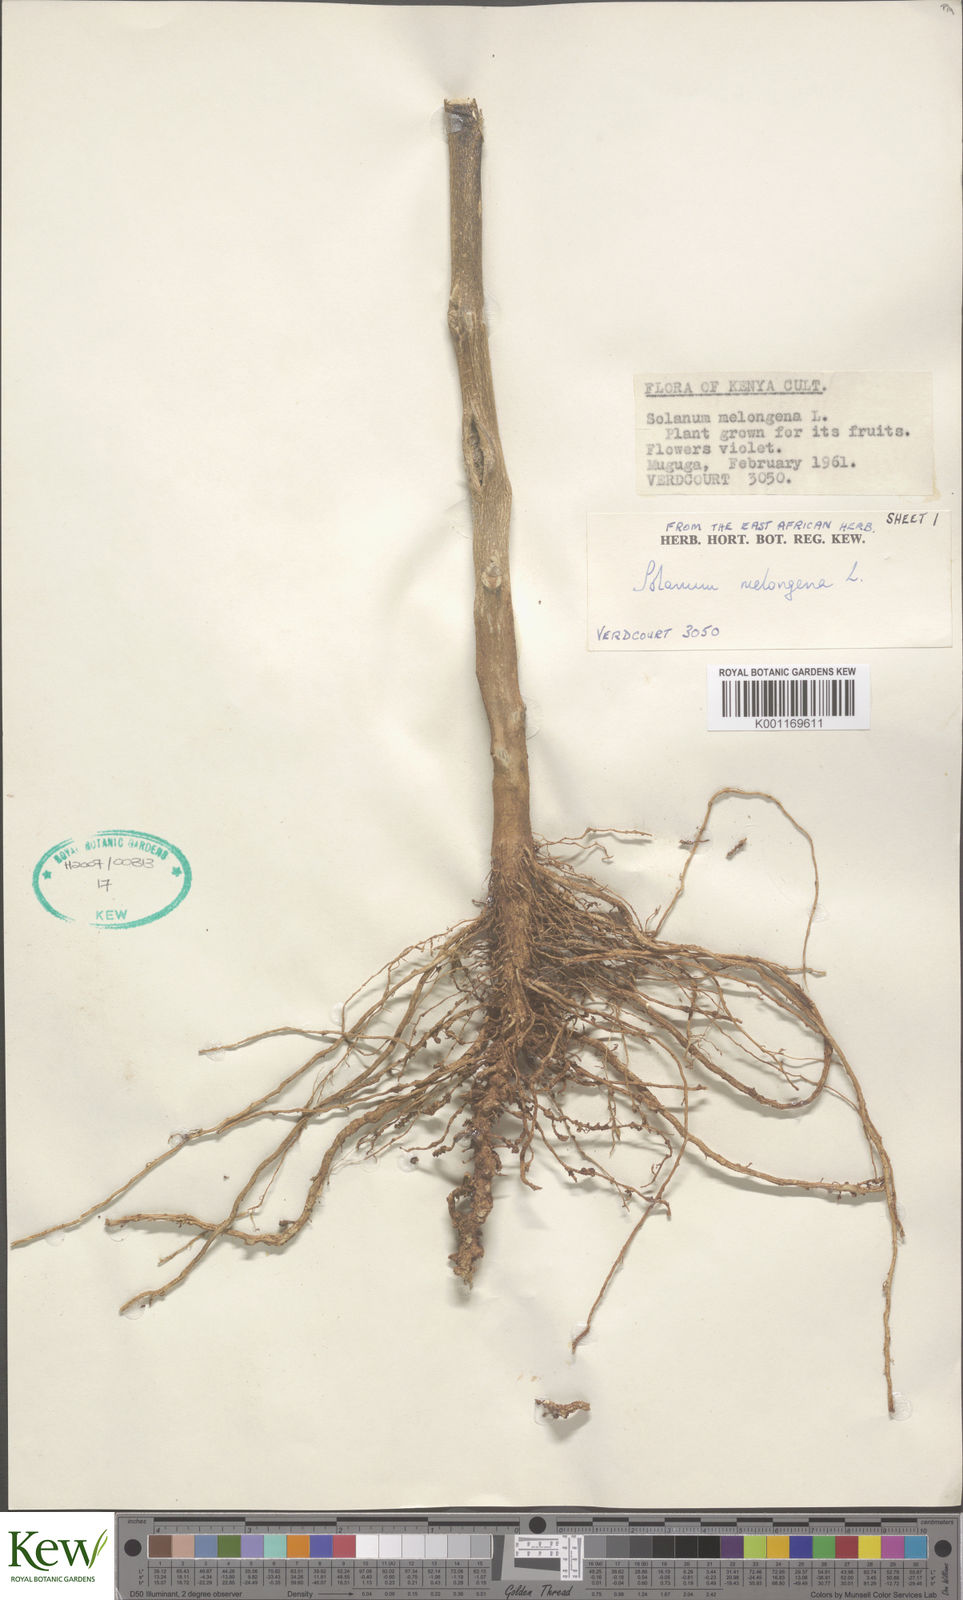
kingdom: Plantae
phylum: Tracheophyta
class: Magnoliopsida
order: Solanales
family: Solanaceae
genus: Solanum
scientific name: Solanum melongena
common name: Eggplant
